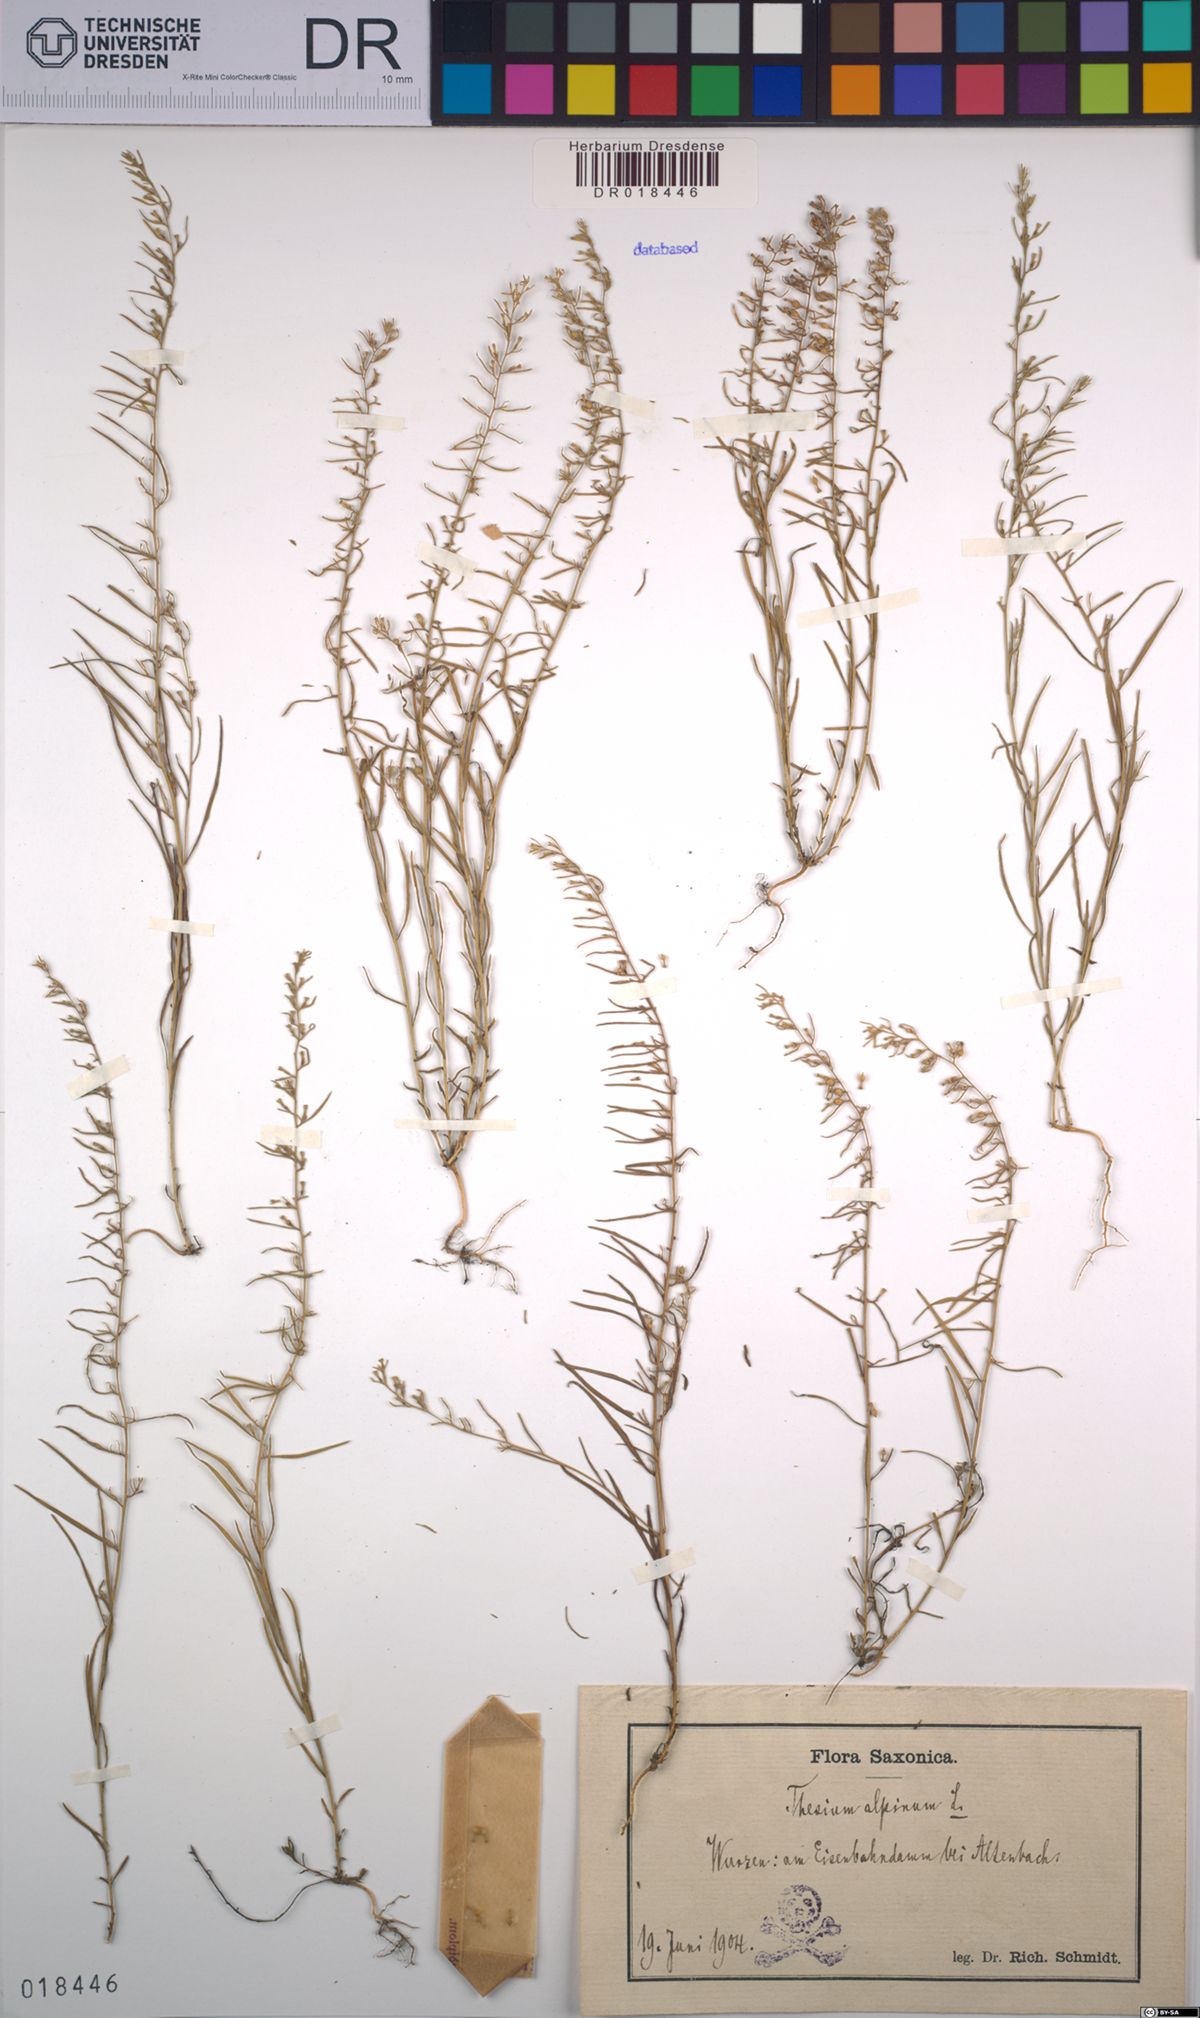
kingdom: Plantae
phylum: Tracheophyta
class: Magnoliopsida
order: Santalales
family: Thesiaceae
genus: Thesium
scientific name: Thesium alpinum
